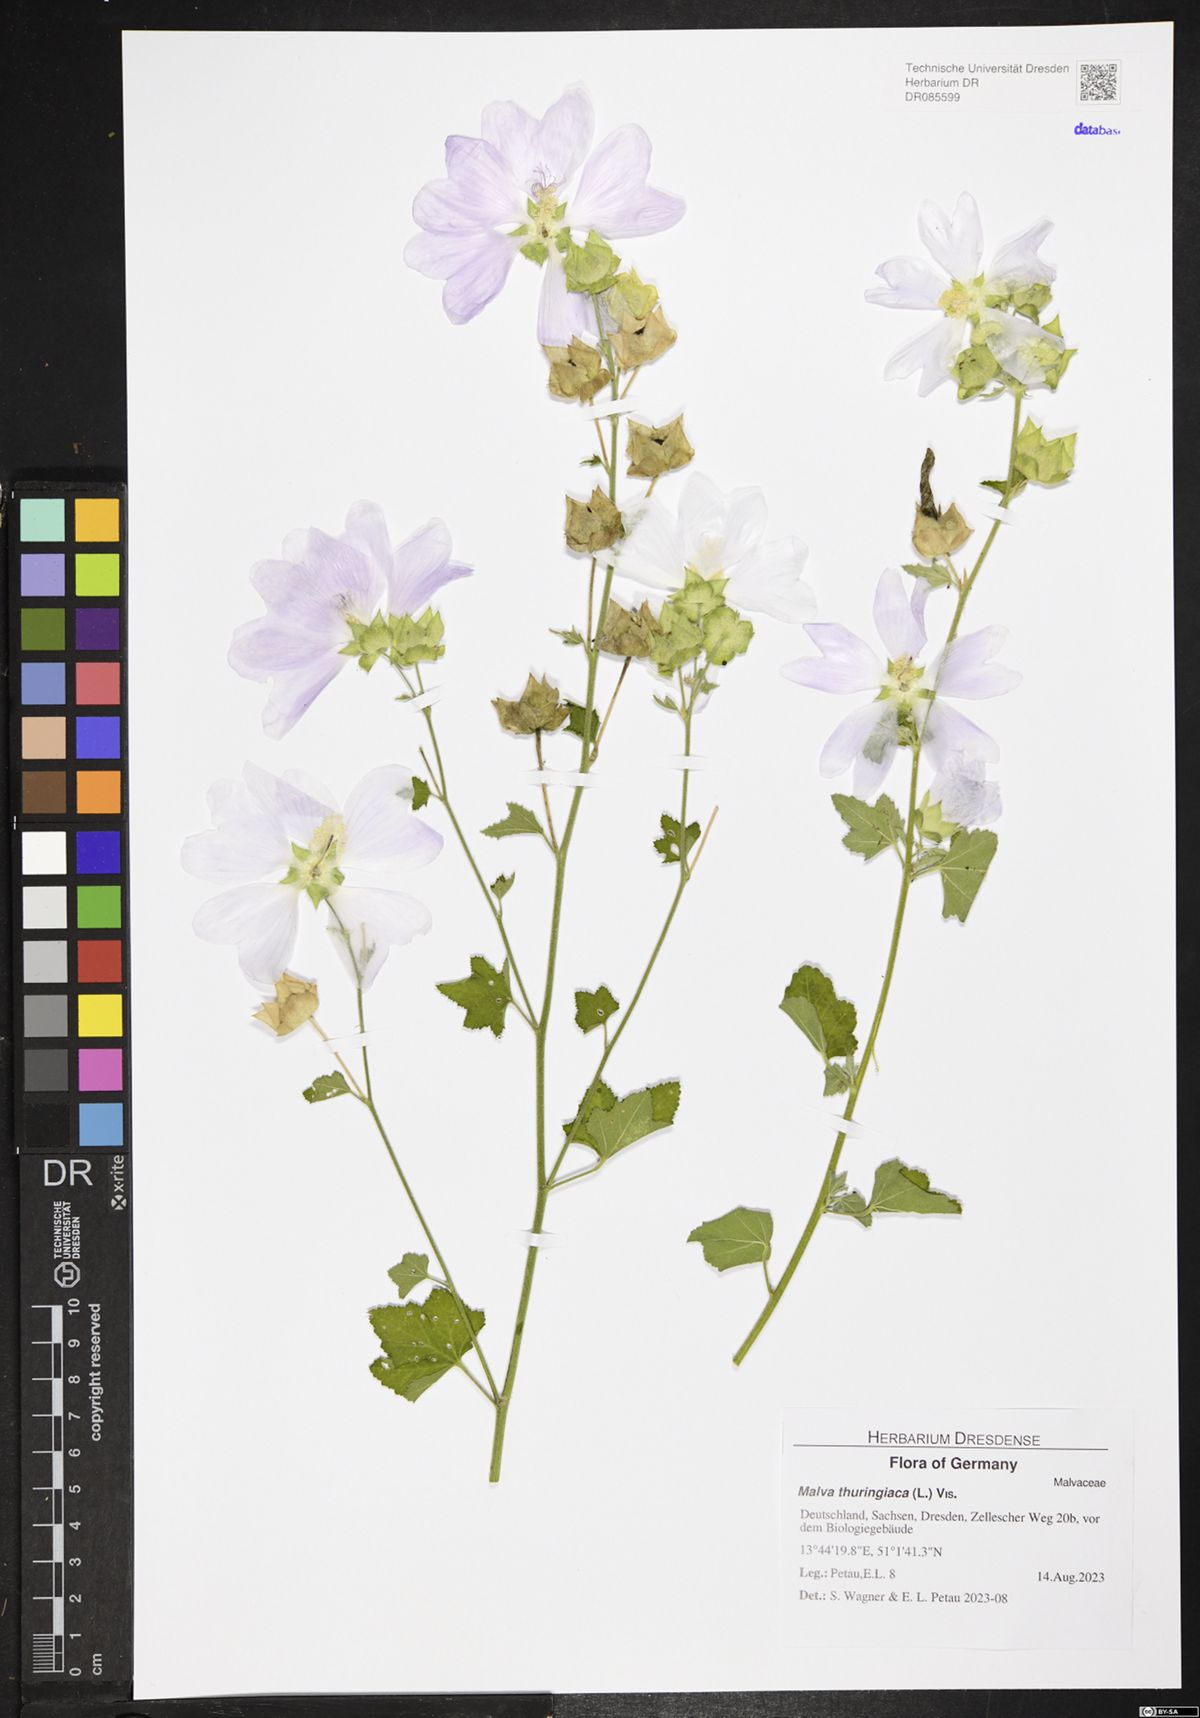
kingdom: Plantae
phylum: Tracheophyta
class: Magnoliopsida
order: Malvales
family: Malvaceae
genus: Malva
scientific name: Malva thuringiaca
